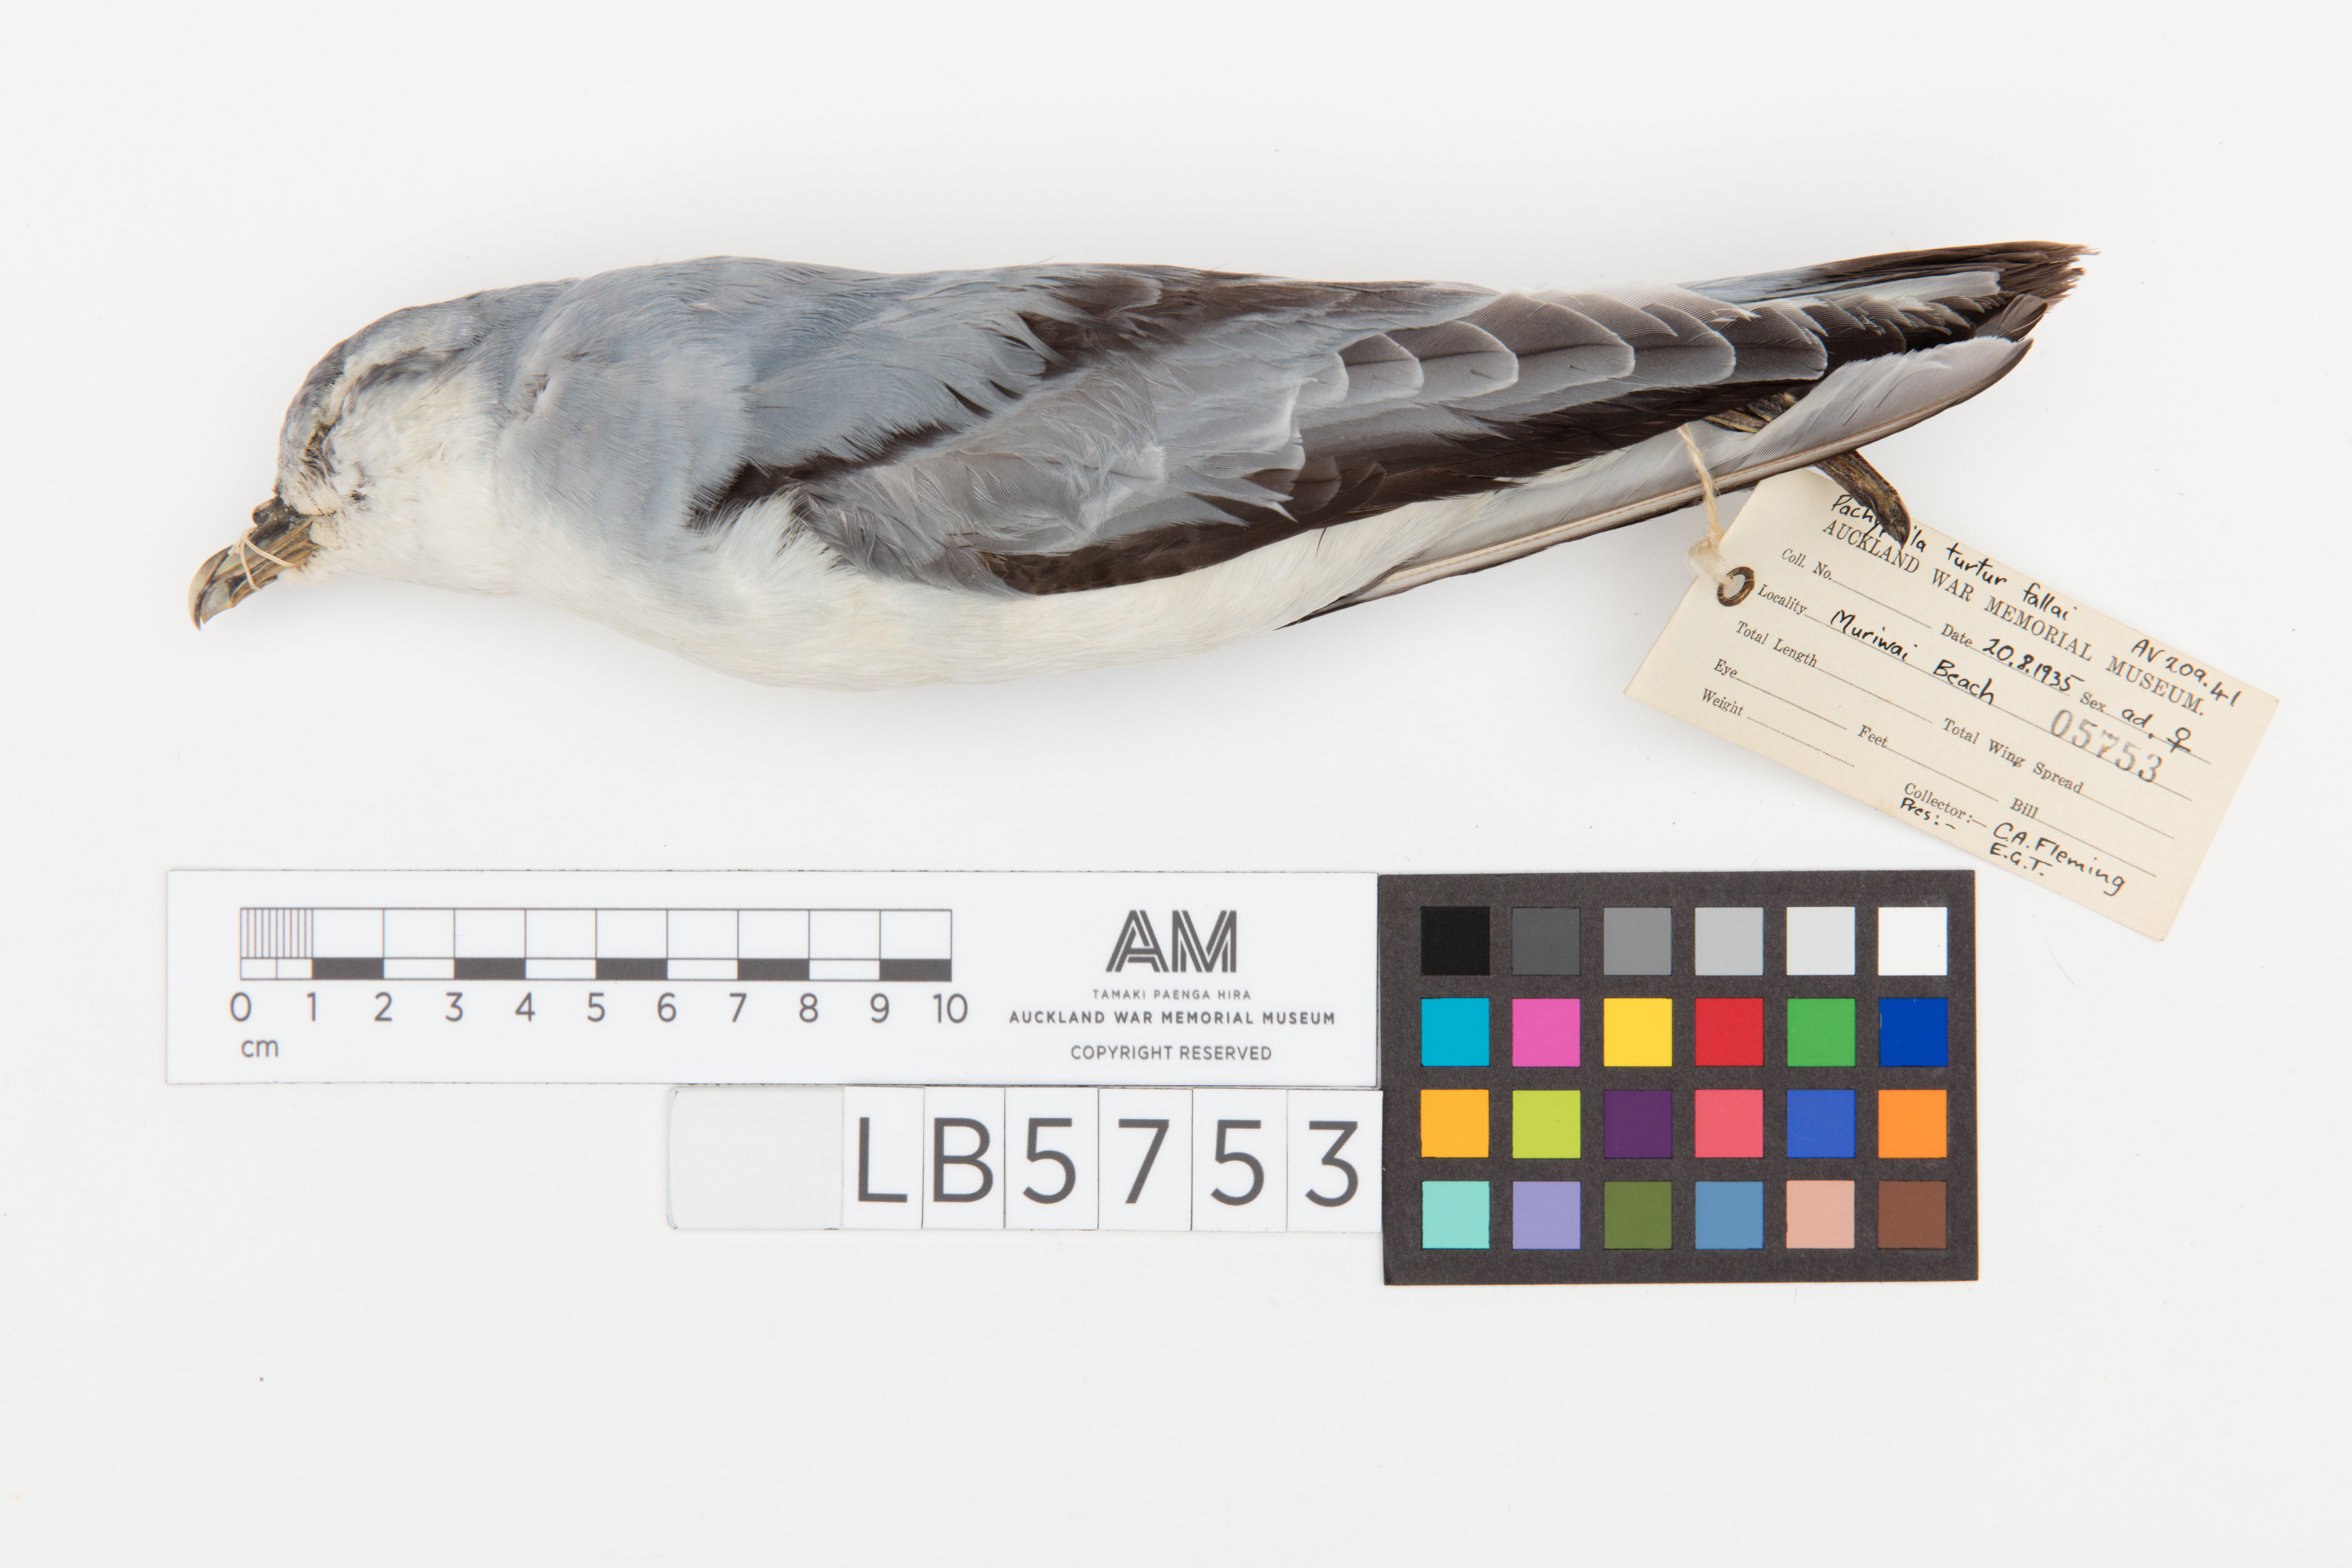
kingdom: Animalia
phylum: Chordata
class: Aves
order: Procellariiformes
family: Procellariidae
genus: Pachyptila
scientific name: Pachyptila turtur
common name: Fairy prion
